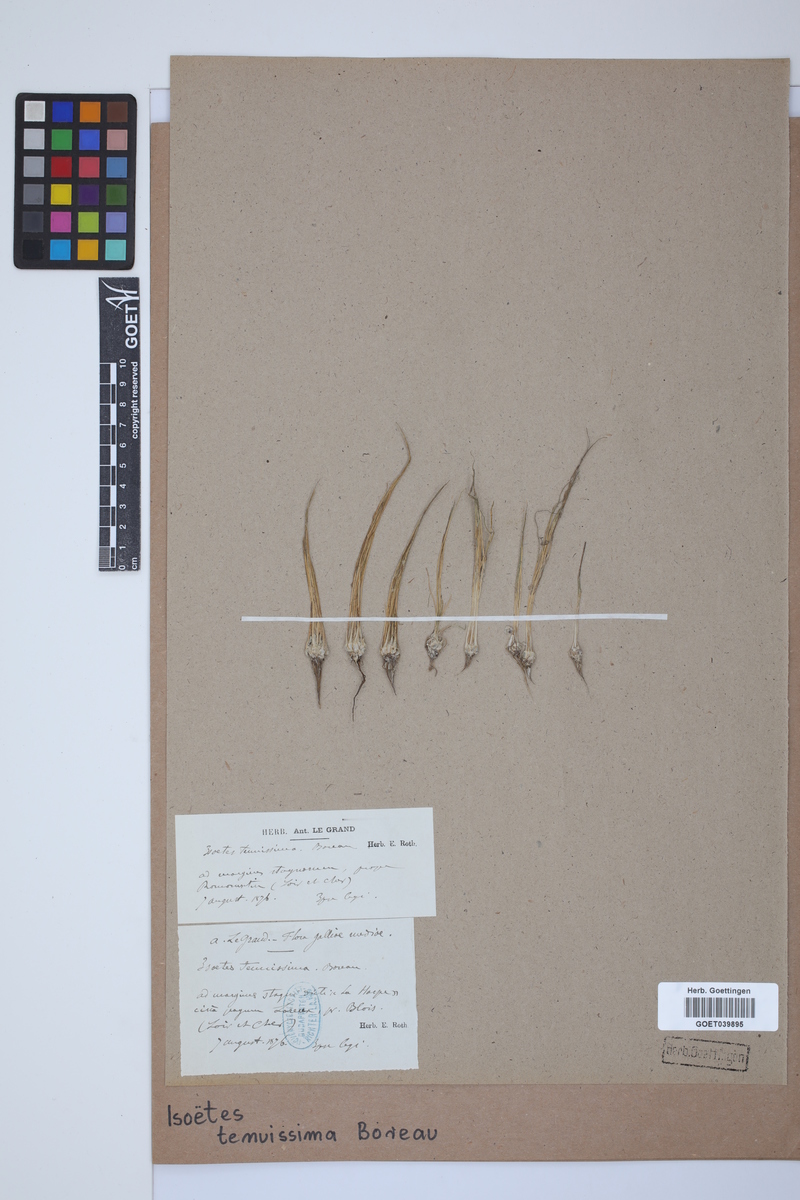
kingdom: Plantae
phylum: Tracheophyta
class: Lycopodiopsida
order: Isoetales
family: Isoetaceae
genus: Isoetes
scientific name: Isoetes muelleri
